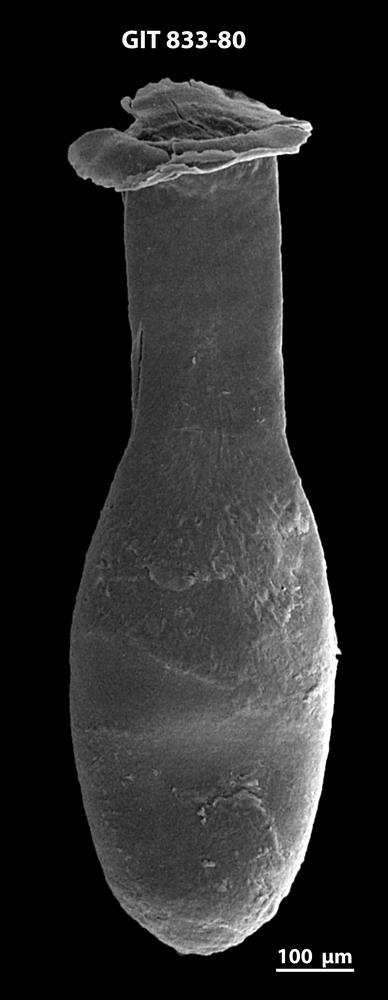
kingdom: Animalia
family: Lagenochitinidae
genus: Lagenochitina
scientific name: Lagenochitina megaesthonica
